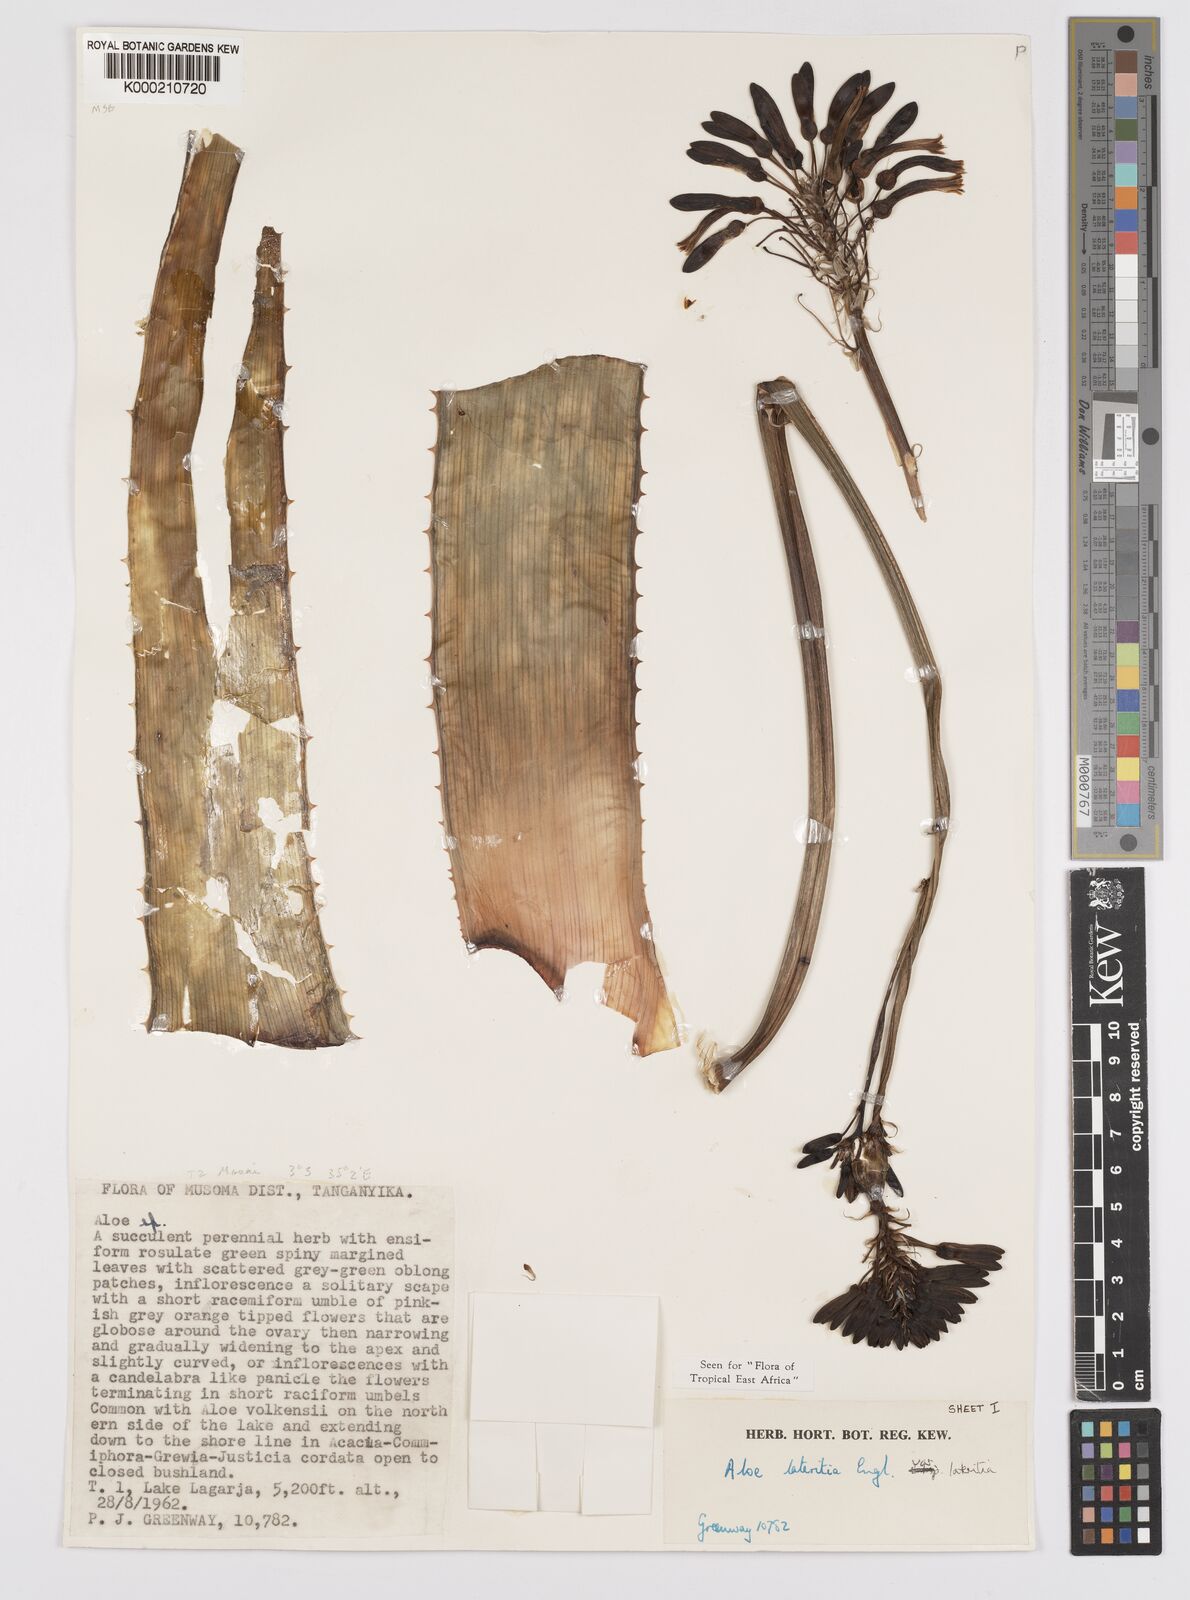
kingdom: Plantae
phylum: Tracheophyta
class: Liliopsida
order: Asparagales
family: Asphodelaceae
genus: Aloe
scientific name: Aloe lateritia
